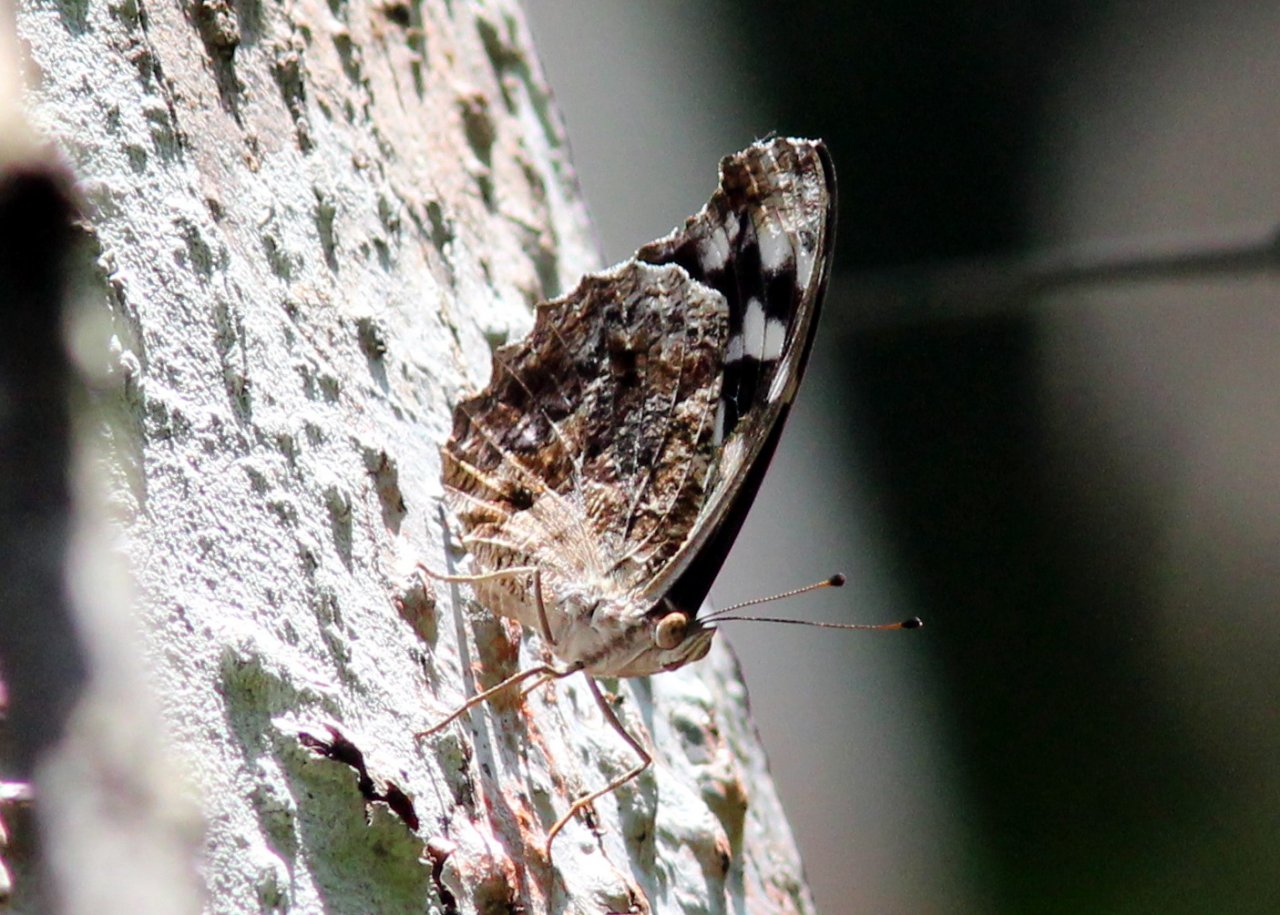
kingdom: Animalia
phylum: Arthropoda
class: Insecta
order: Lepidoptera
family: Nymphalidae
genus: Myscelia
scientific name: Myscelia cyaniris
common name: Whitened Bluewing
